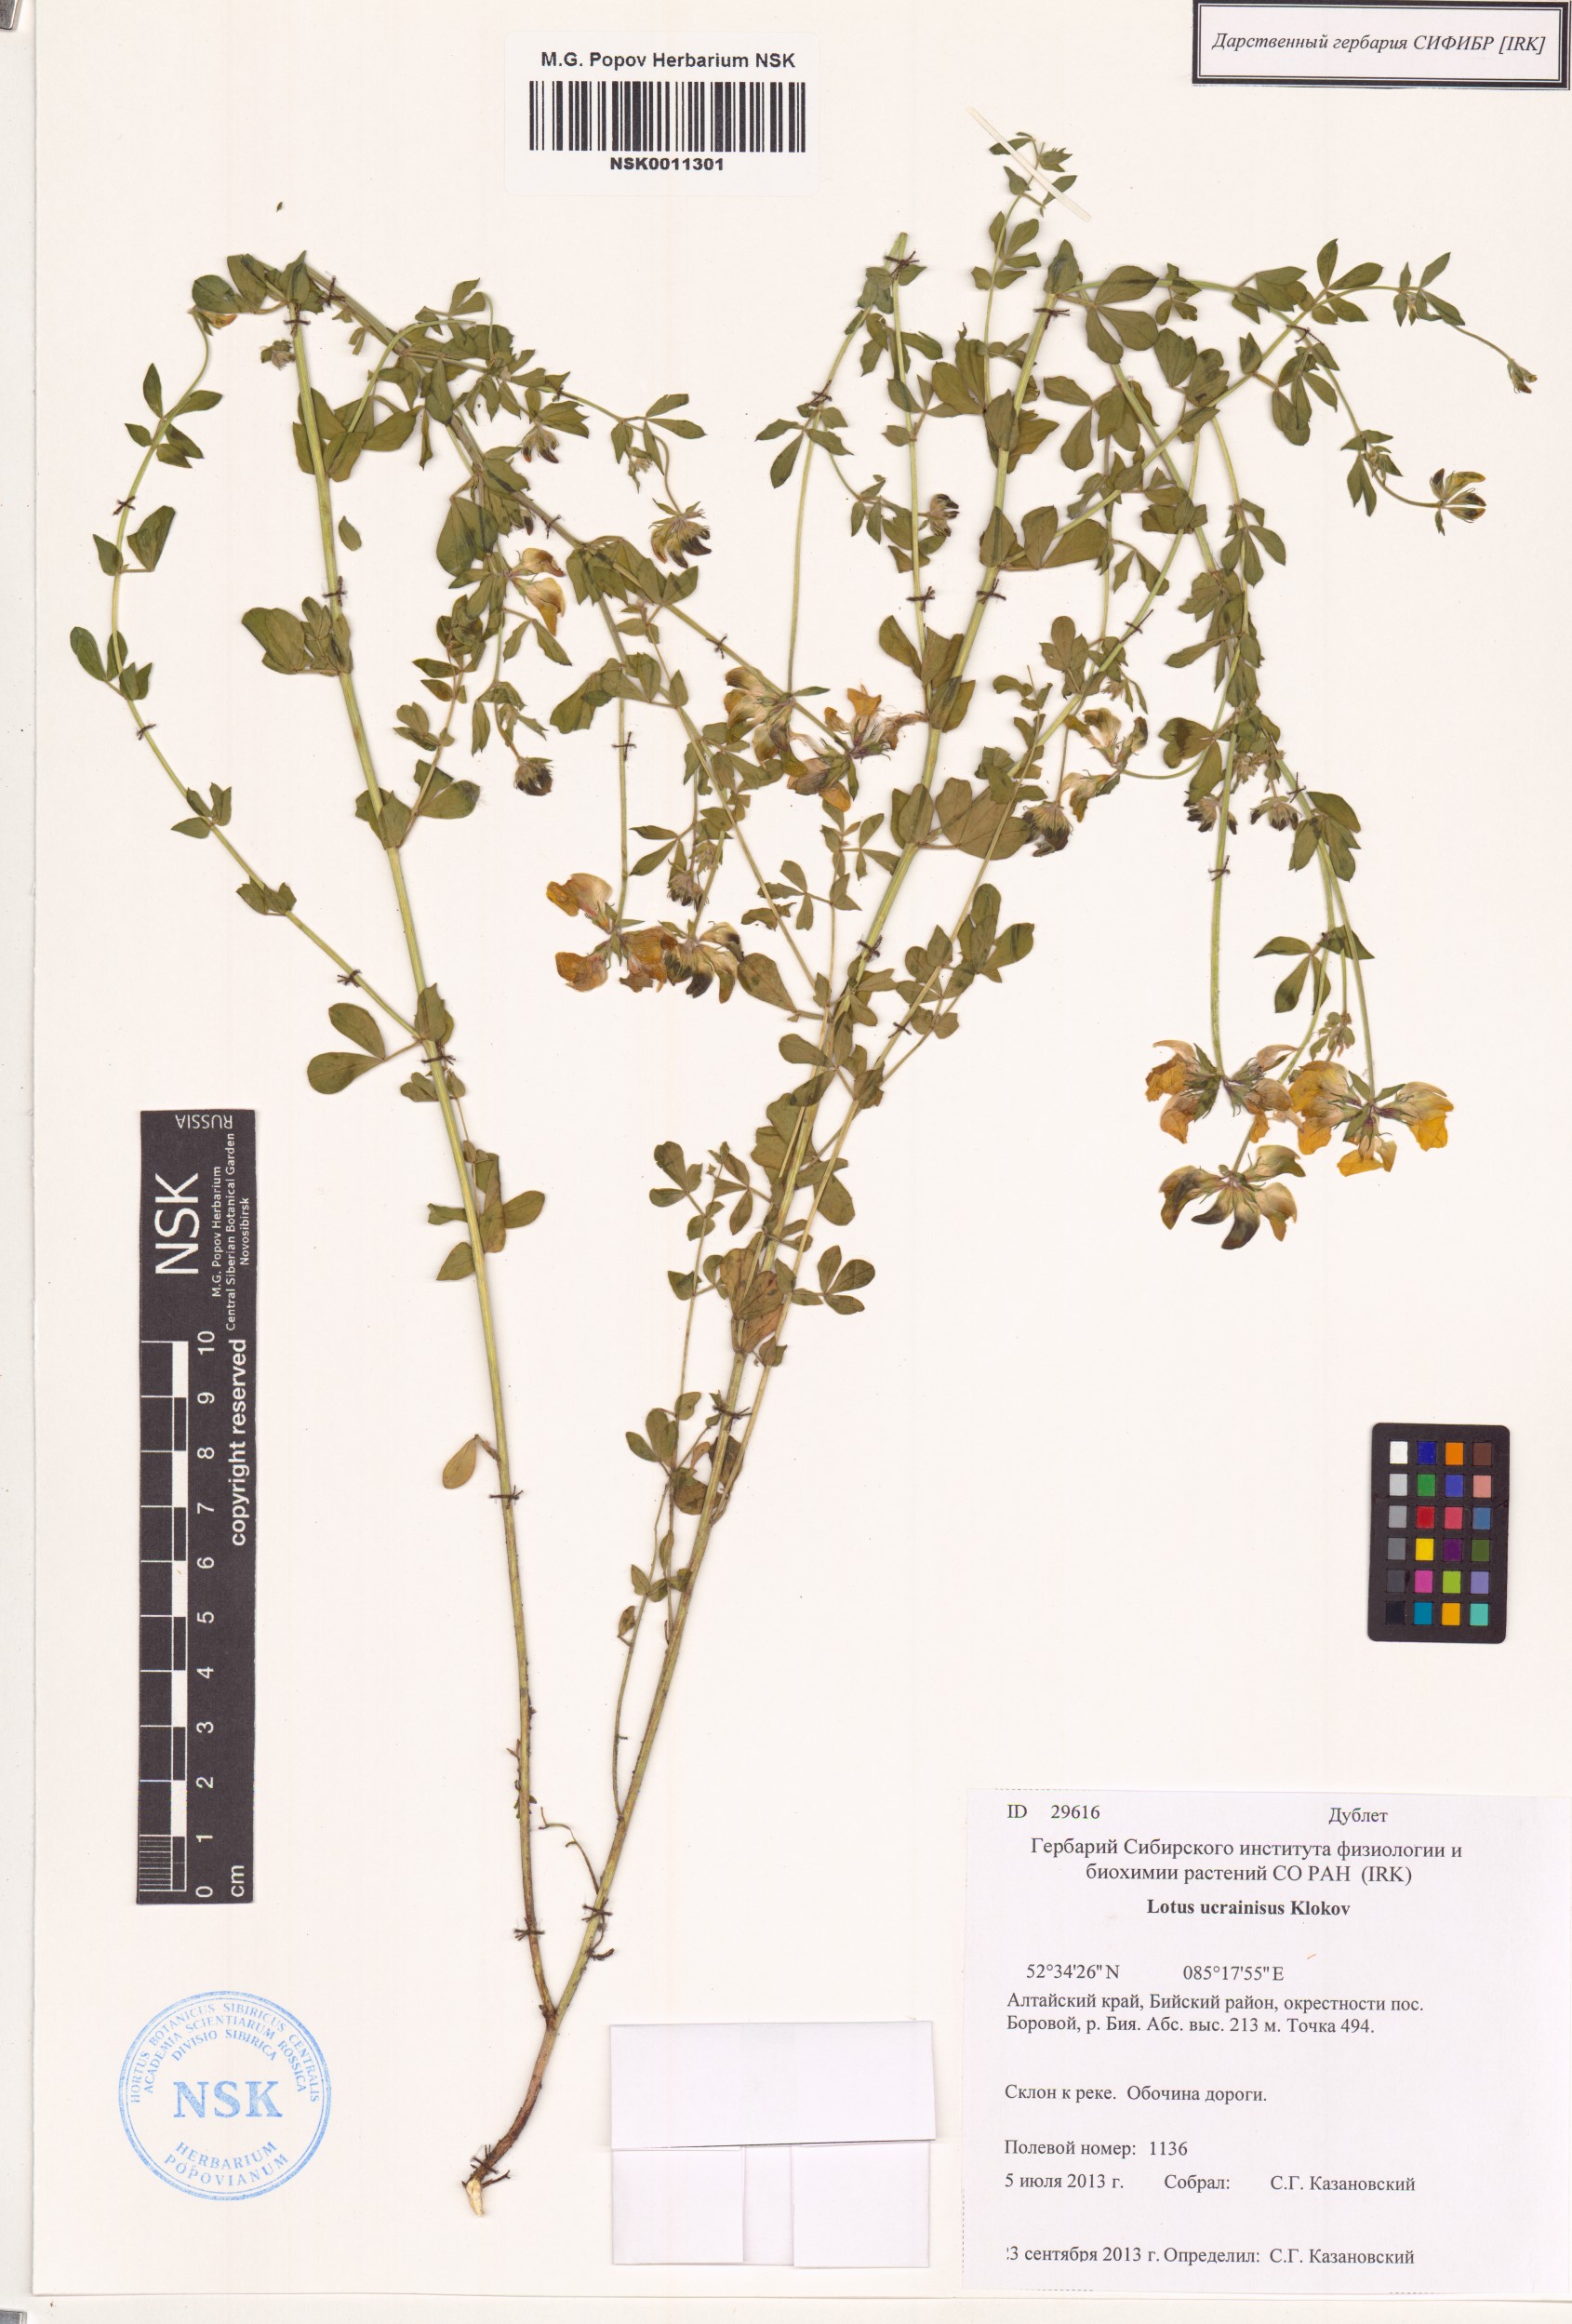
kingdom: Plantae
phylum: Tracheophyta
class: Magnoliopsida
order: Fabales
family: Fabaceae
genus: Lotus
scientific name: Lotus ucrainicus
